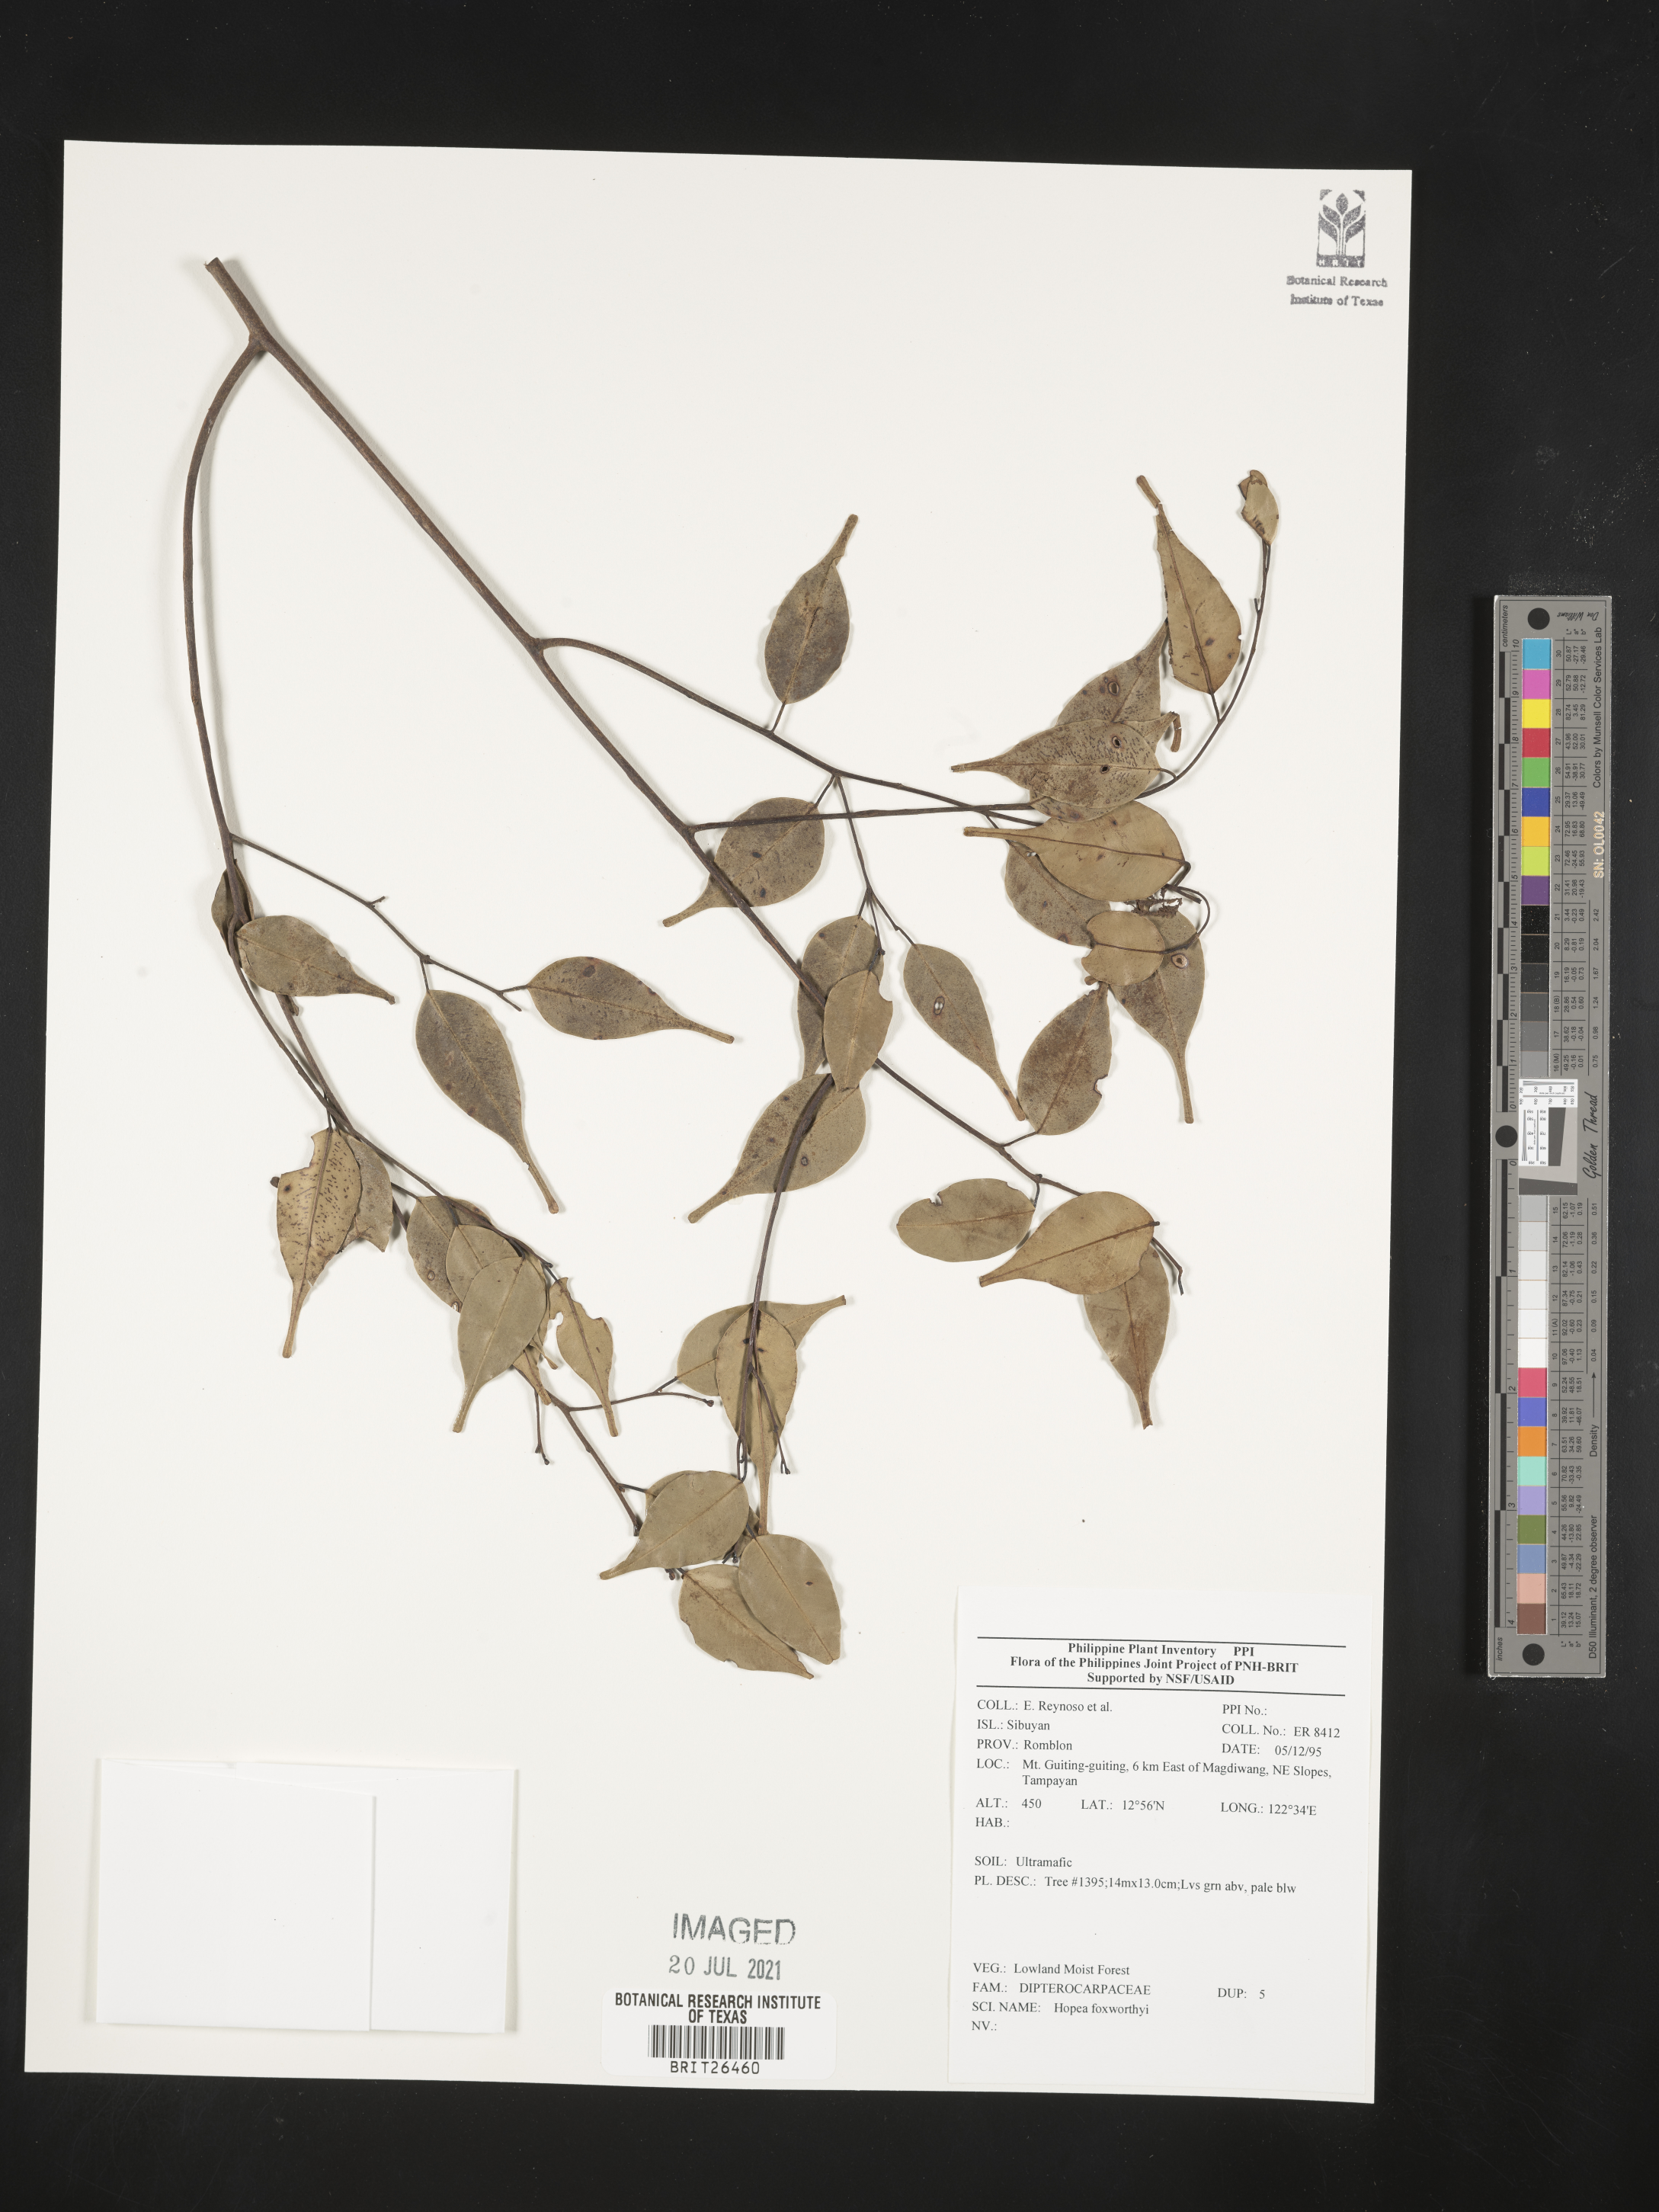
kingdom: Plantae
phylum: Tracheophyta
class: Magnoliopsida
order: Malvales
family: Dipterocarpaceae
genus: Hopea
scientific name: Hopea foxworthyi
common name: Dalingdingan
